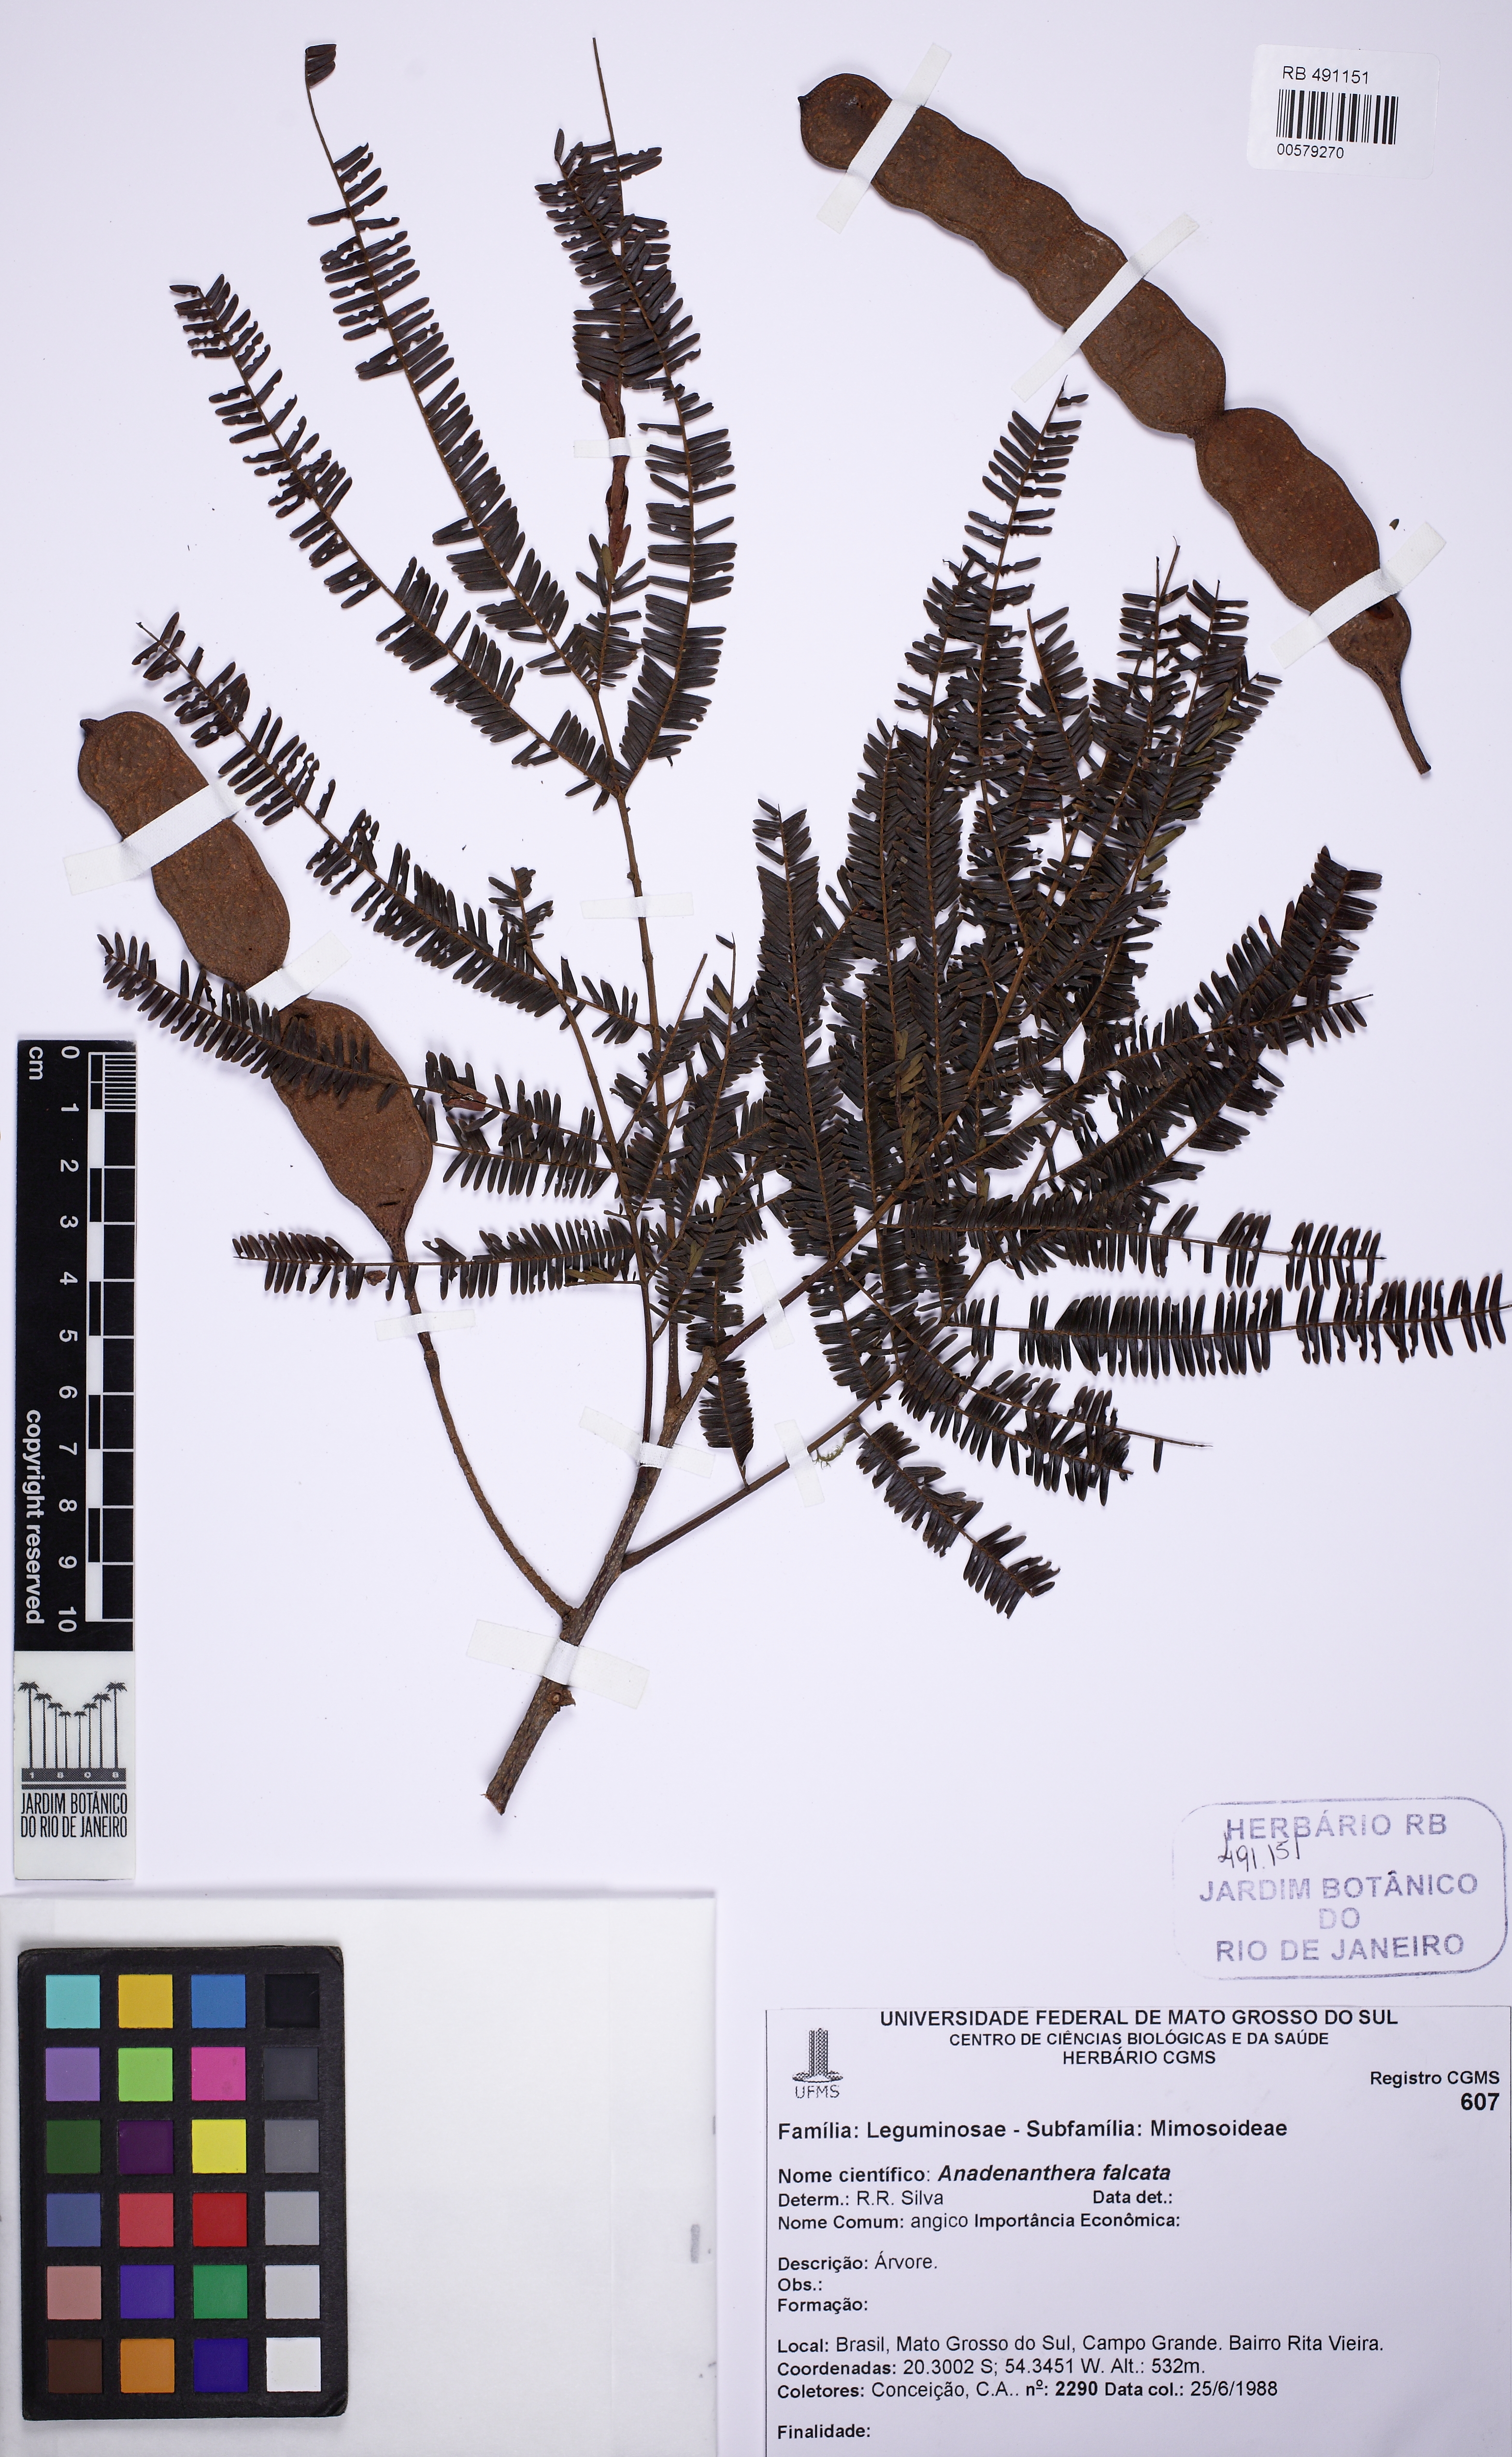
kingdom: Plantae
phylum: Tracheophyta
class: Magnoliopsida
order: Fabales
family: Fabaceae
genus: Anadenanthera
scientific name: Anadenanthera peregrina
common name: Cohoba
